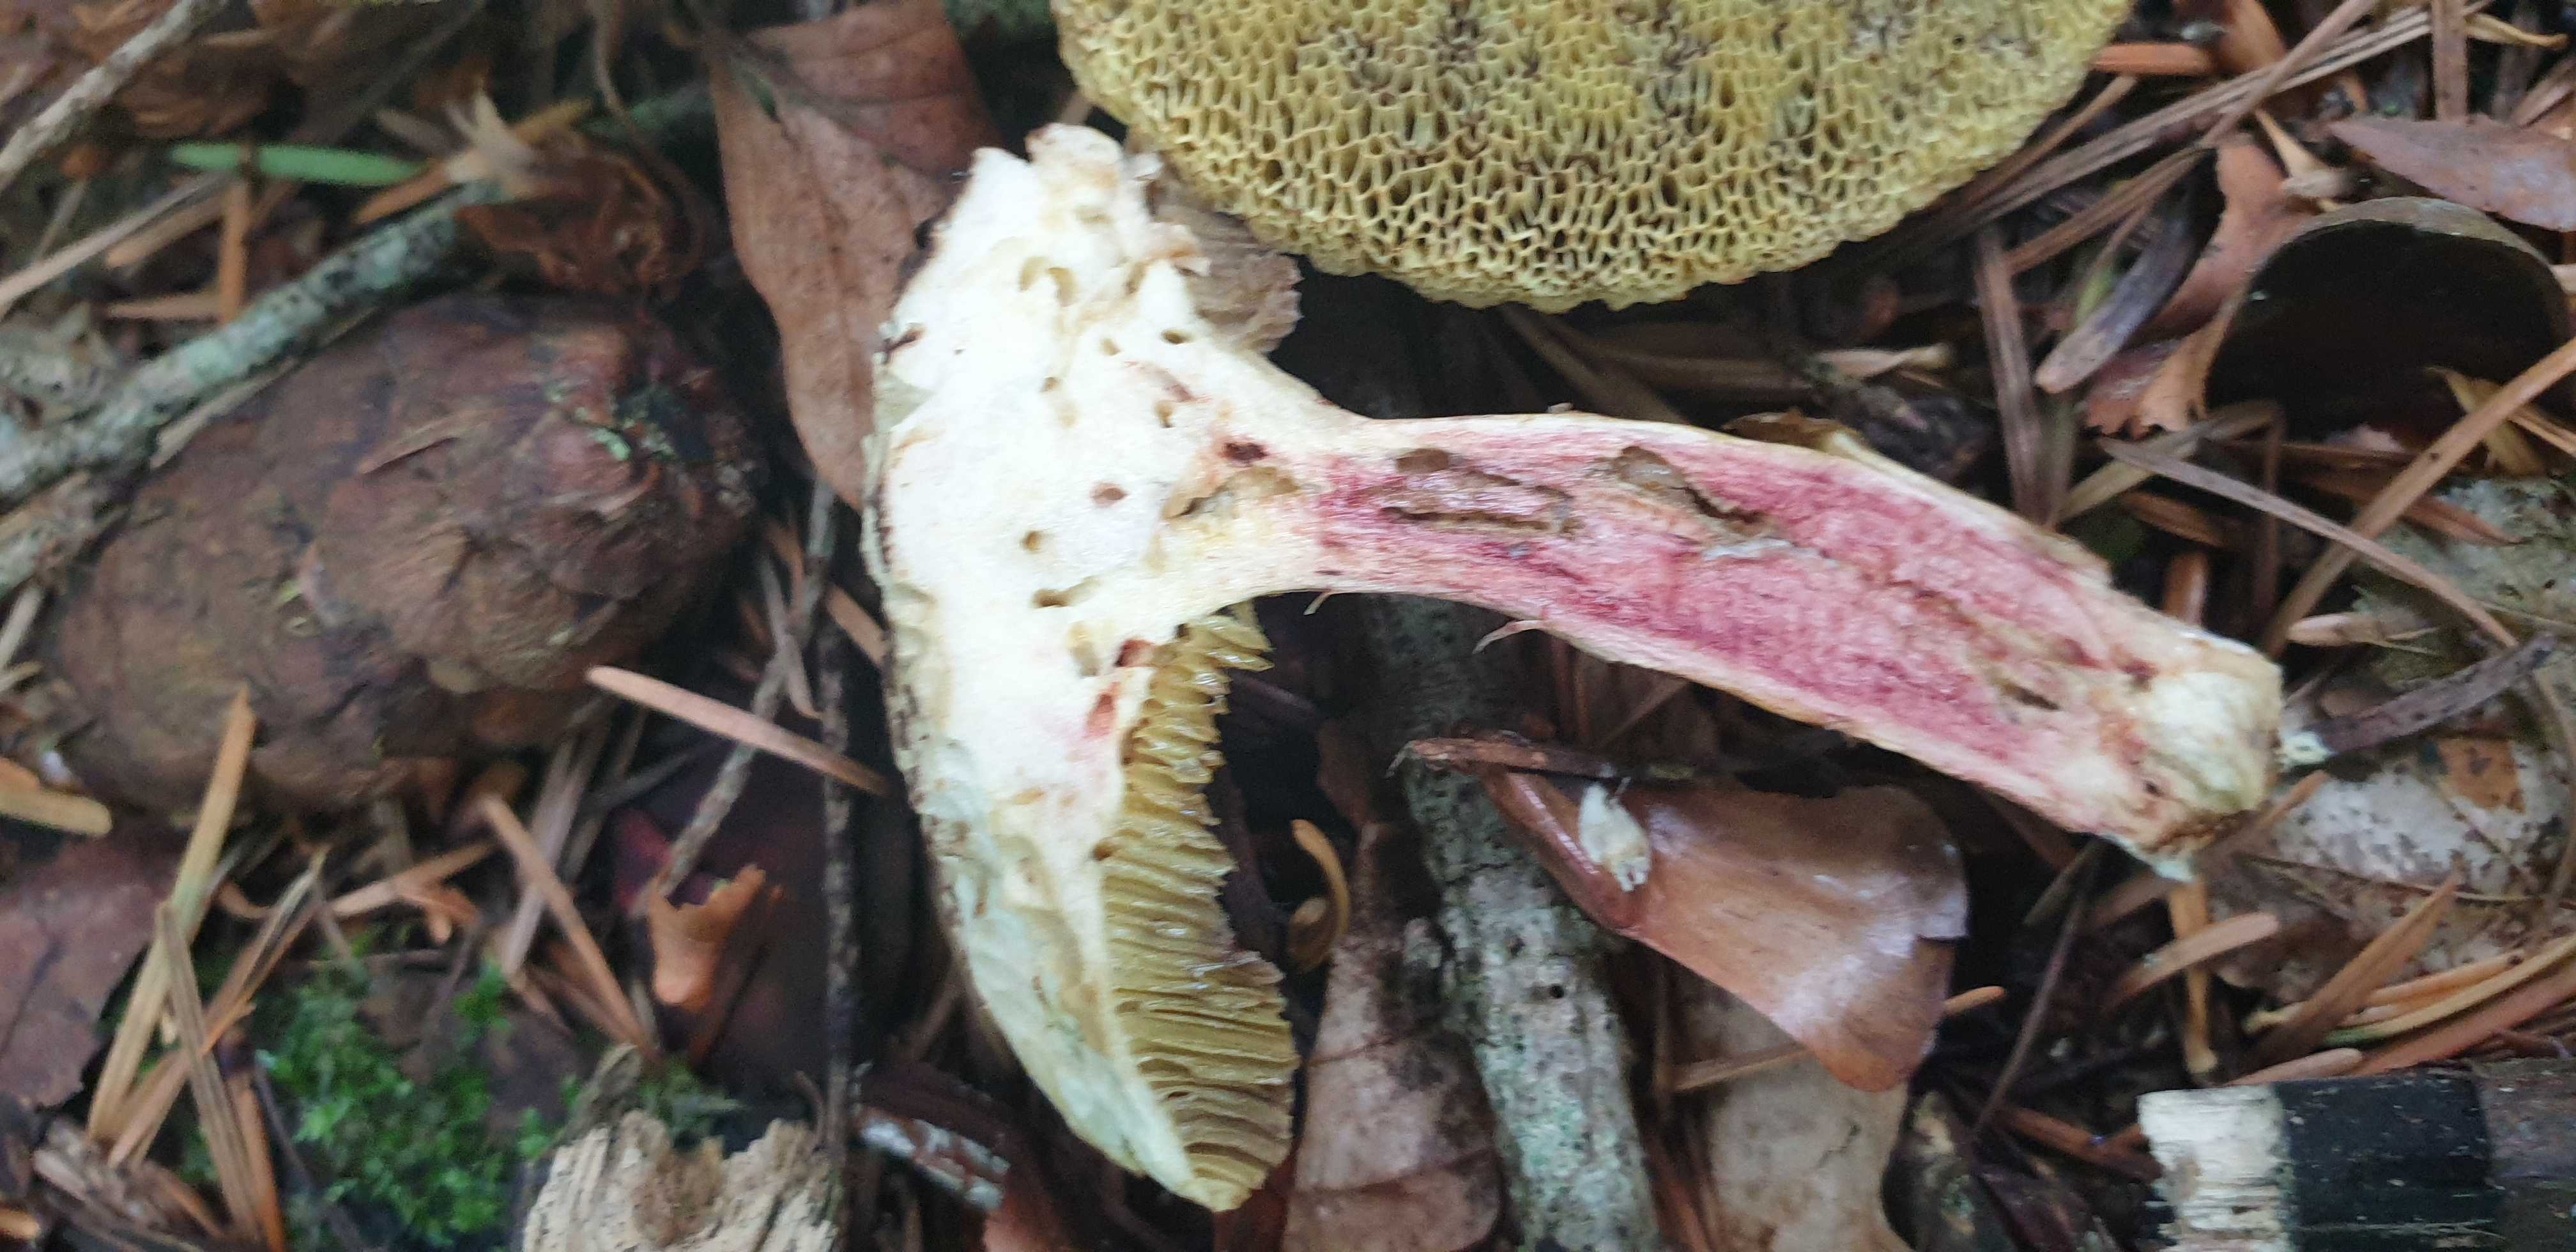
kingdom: Fungi
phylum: Basidiomycota
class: Agaricomycetes
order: Boletales
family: Boletaceae
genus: Xerocomellus
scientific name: Xerocomellus chrysenteron
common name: rødsprukken rørhat
